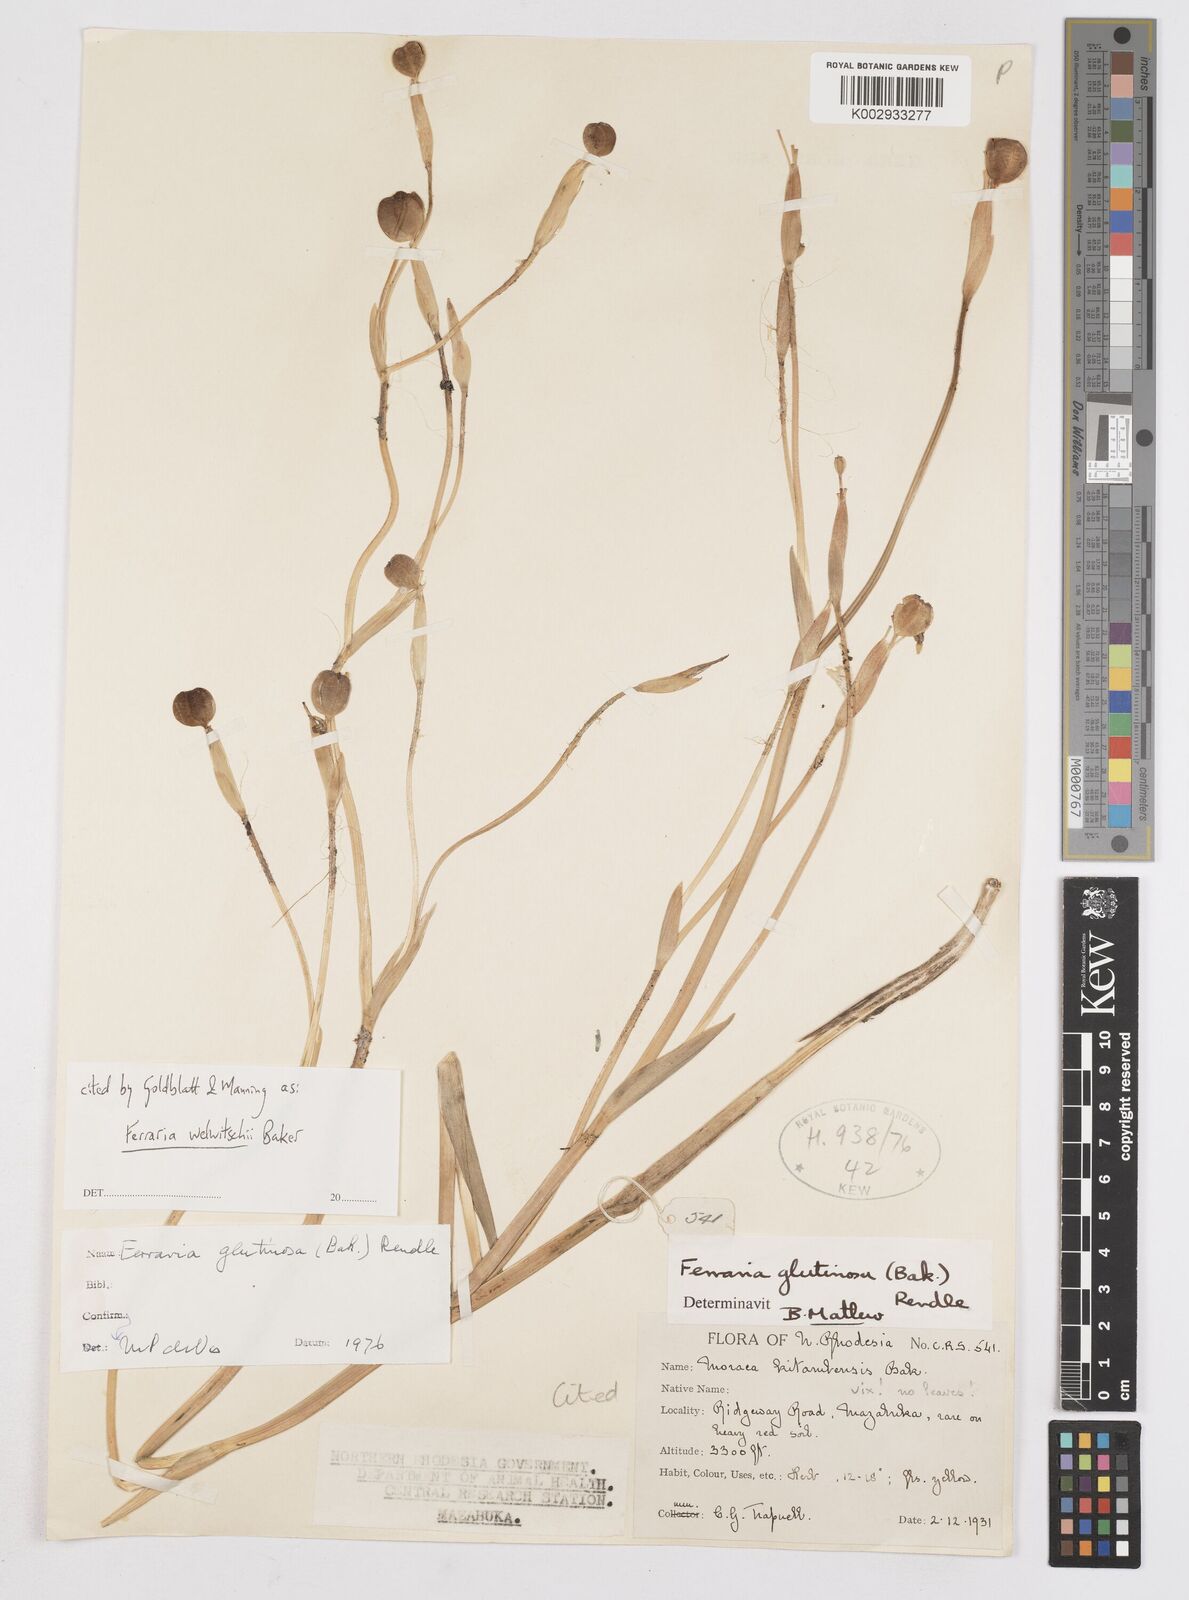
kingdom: Plantae
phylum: Tracheophyta
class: Liliopsida
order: Asparagales
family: Iridaceae
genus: Ferraria
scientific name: Ferraria welwitschii
